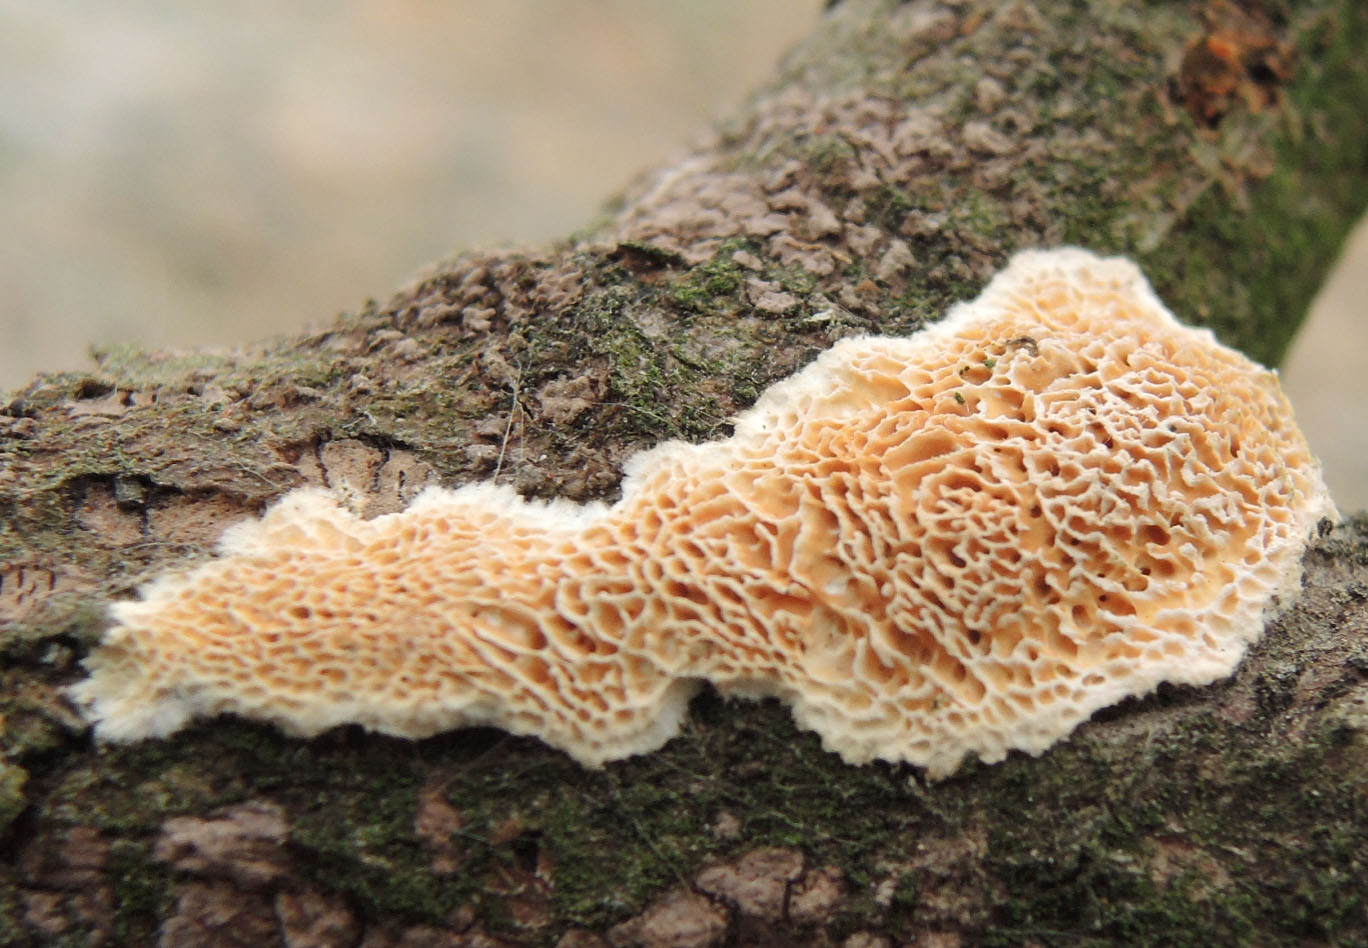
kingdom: Fungi
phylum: Basidiomycota
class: Agaricomycetes
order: Polyporales
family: Fomitopsidaceae
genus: Brunneoporus
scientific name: Brunneoporus kuzyanus
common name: brunlig sejporesvamp
